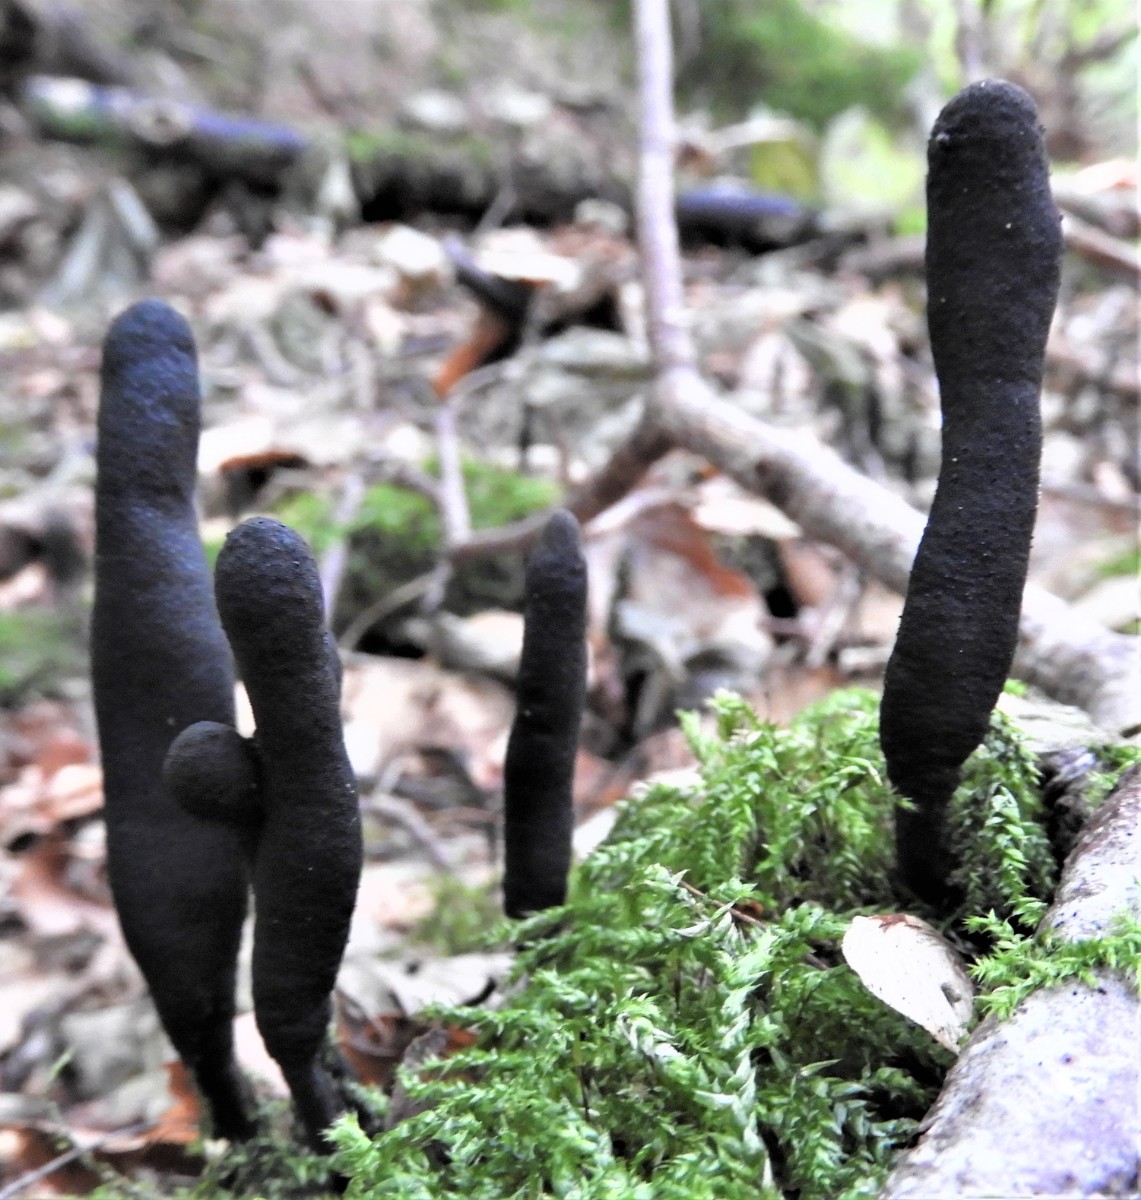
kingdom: Fungi
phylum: Ascomycota
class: Sordariomycetes
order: Xylariales
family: Xylariaceae
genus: Xylaria
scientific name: Xylaria longipes
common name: slank stødsvamp
